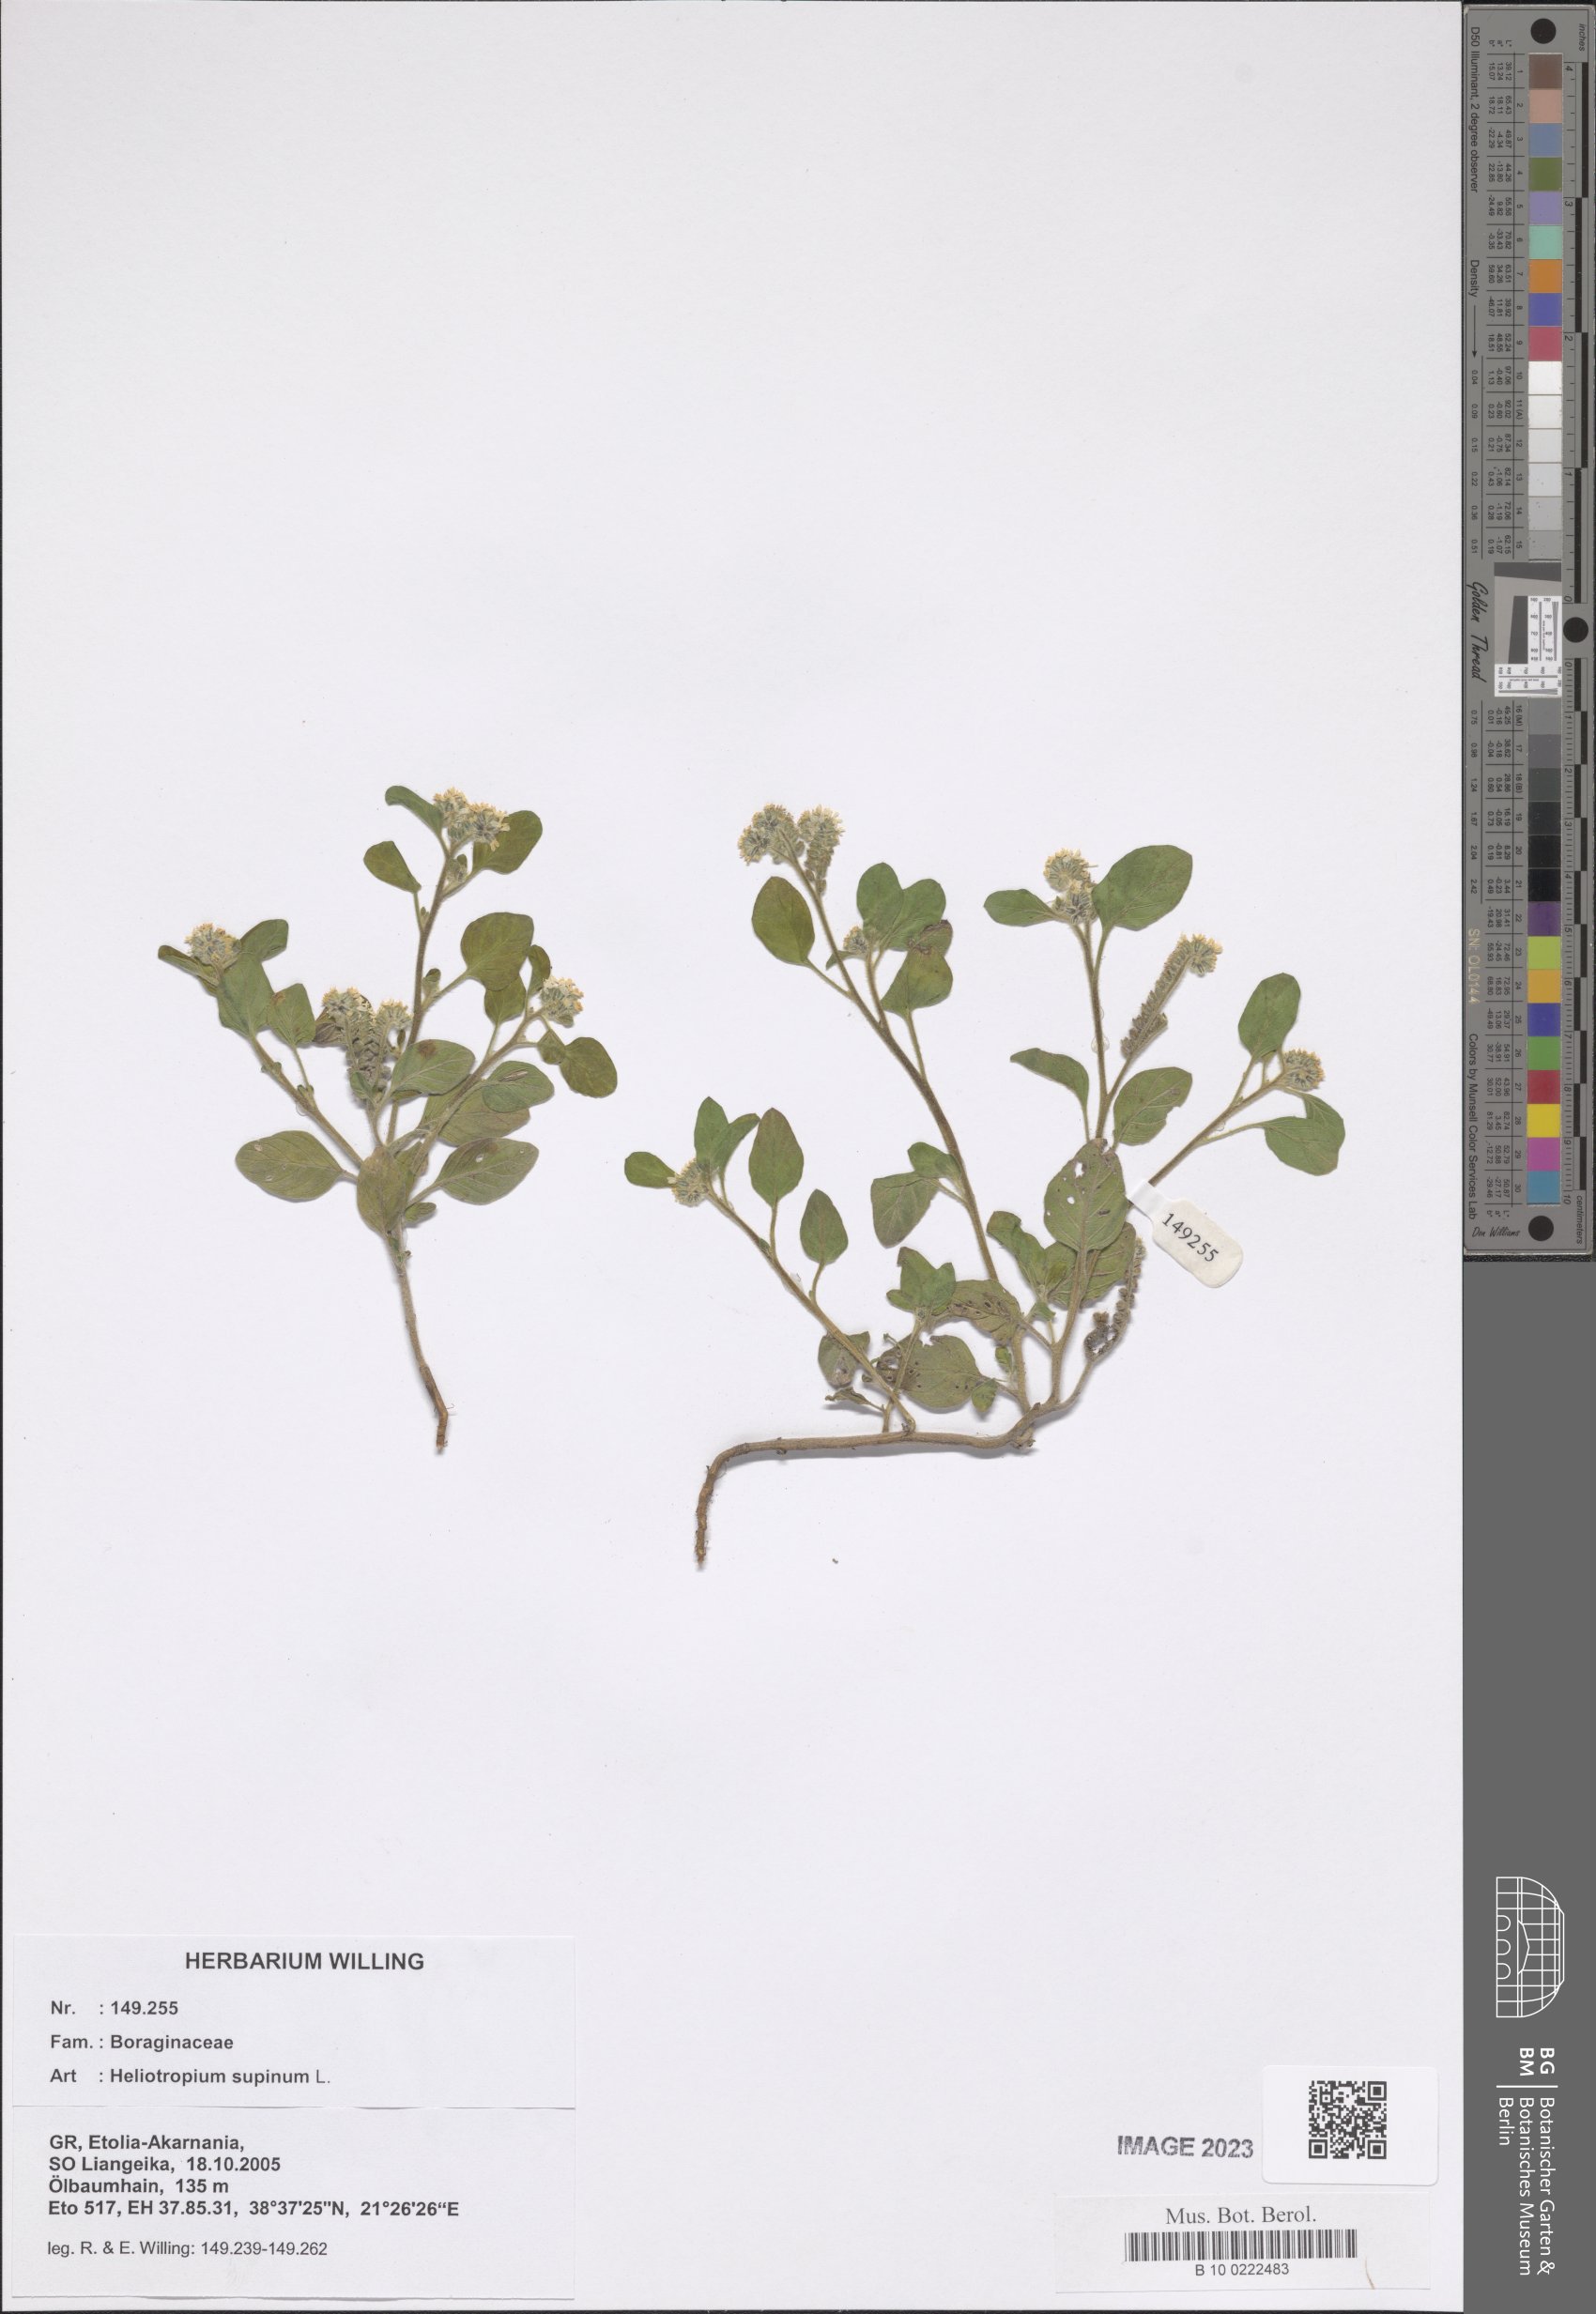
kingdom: Plantae
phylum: Tracheophyta
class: Magnoliopsida
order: Boraginales
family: Heliotropiaceae
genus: Heliotropium
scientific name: Heliotropium supinum
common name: Dwarf heliotrope
